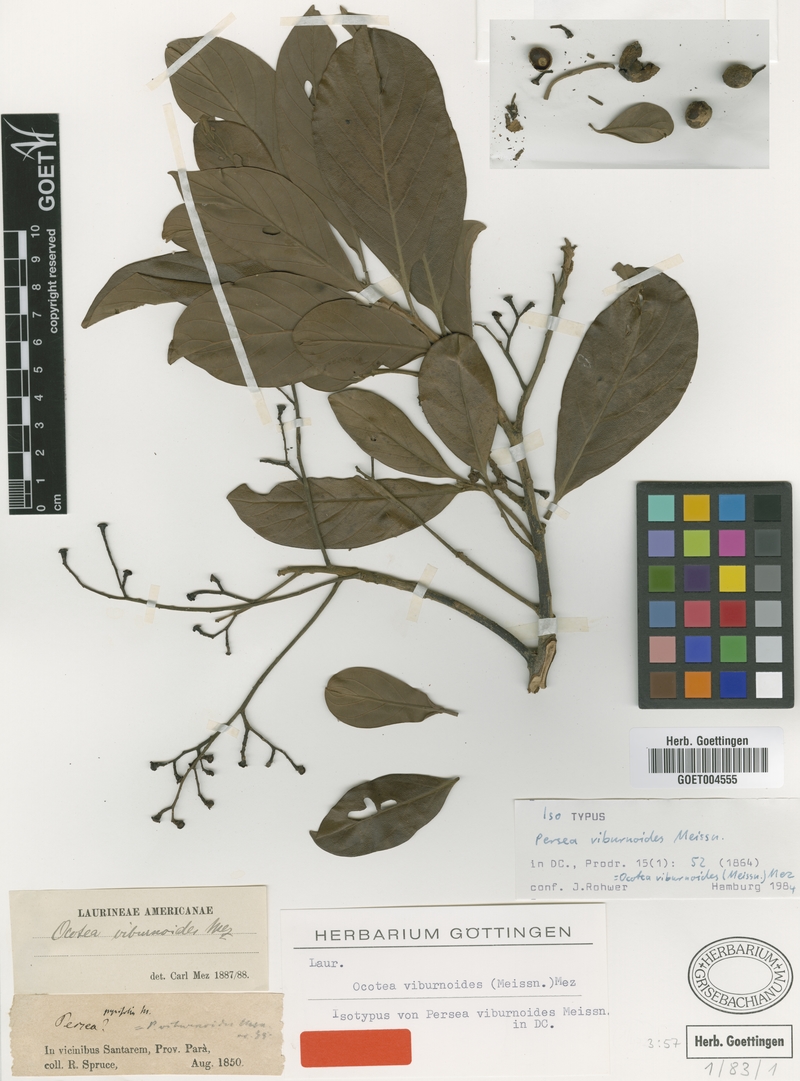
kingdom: Plantae
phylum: Tracheophyta
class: Magnoliopsida
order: Laurales
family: Lauraceae
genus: Ocotea
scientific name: Ocotea viburnoides
